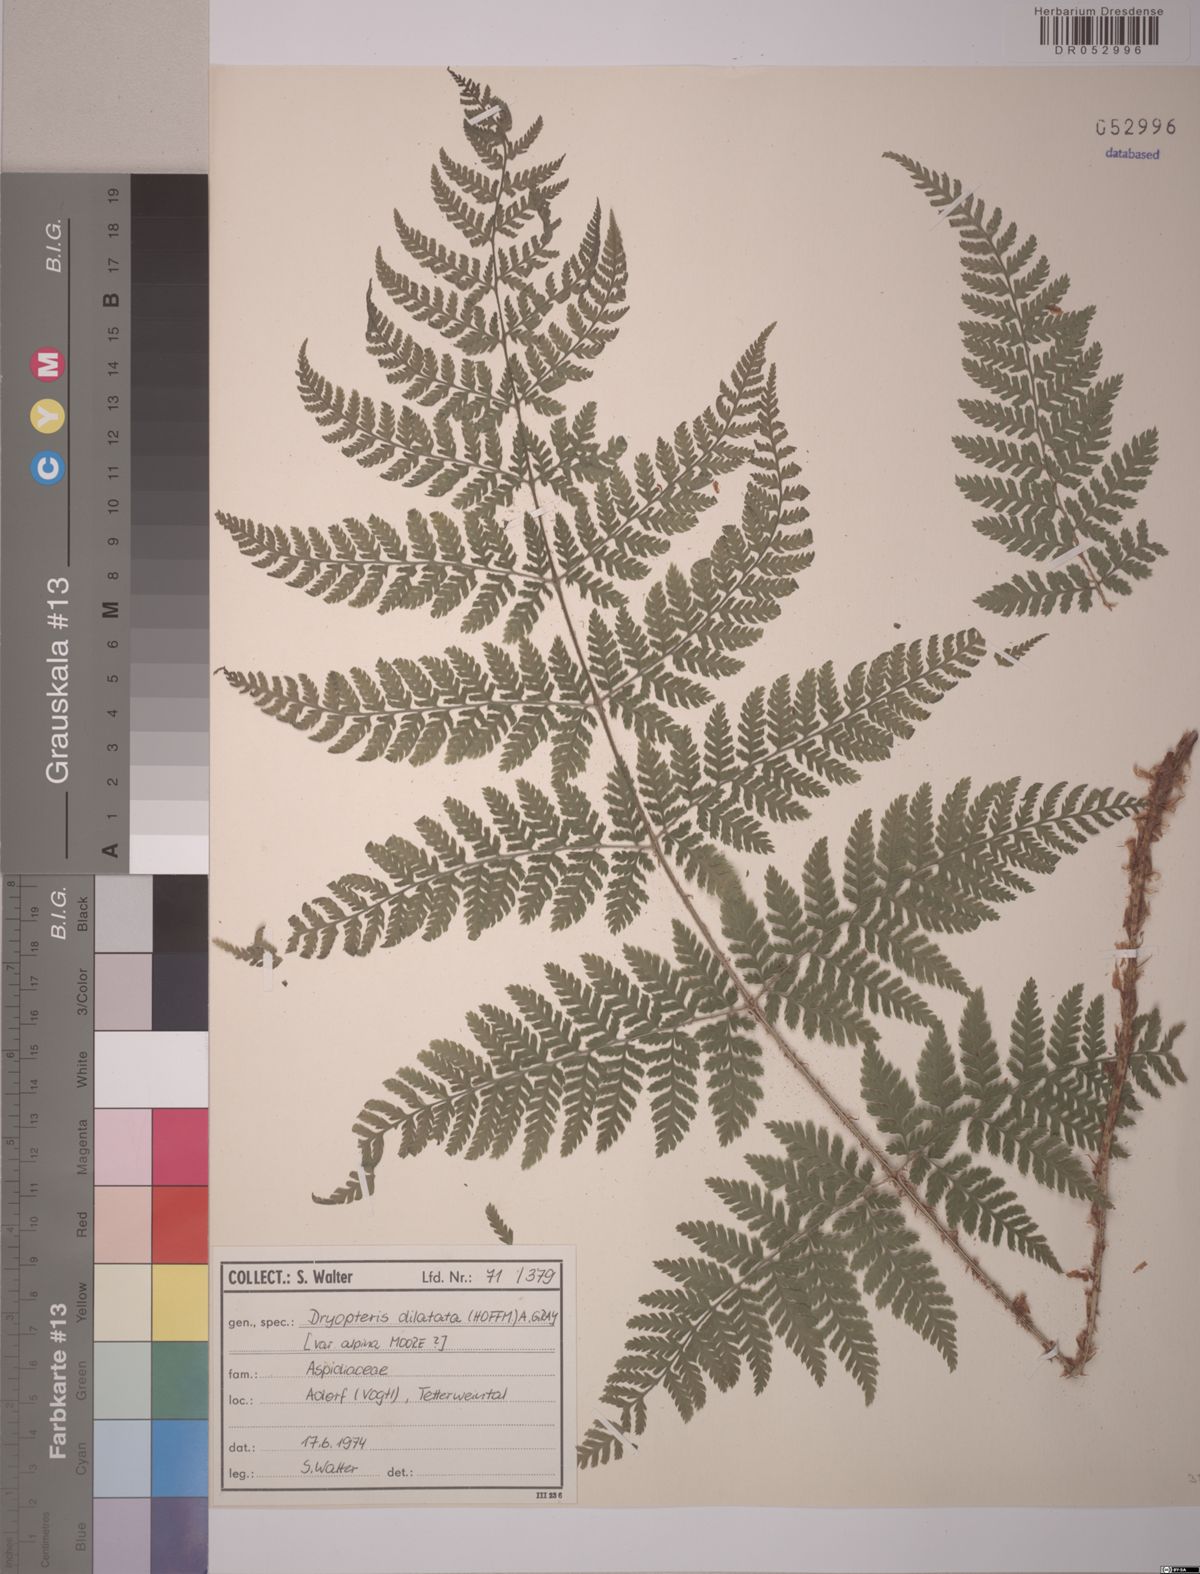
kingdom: Plantae
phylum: Tracheophyta
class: Polypodiopsida
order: Polypodiales
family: Dryopteridaceae
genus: Dryopteris
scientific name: Dryopteris dilatata
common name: Broad buckler-fern
